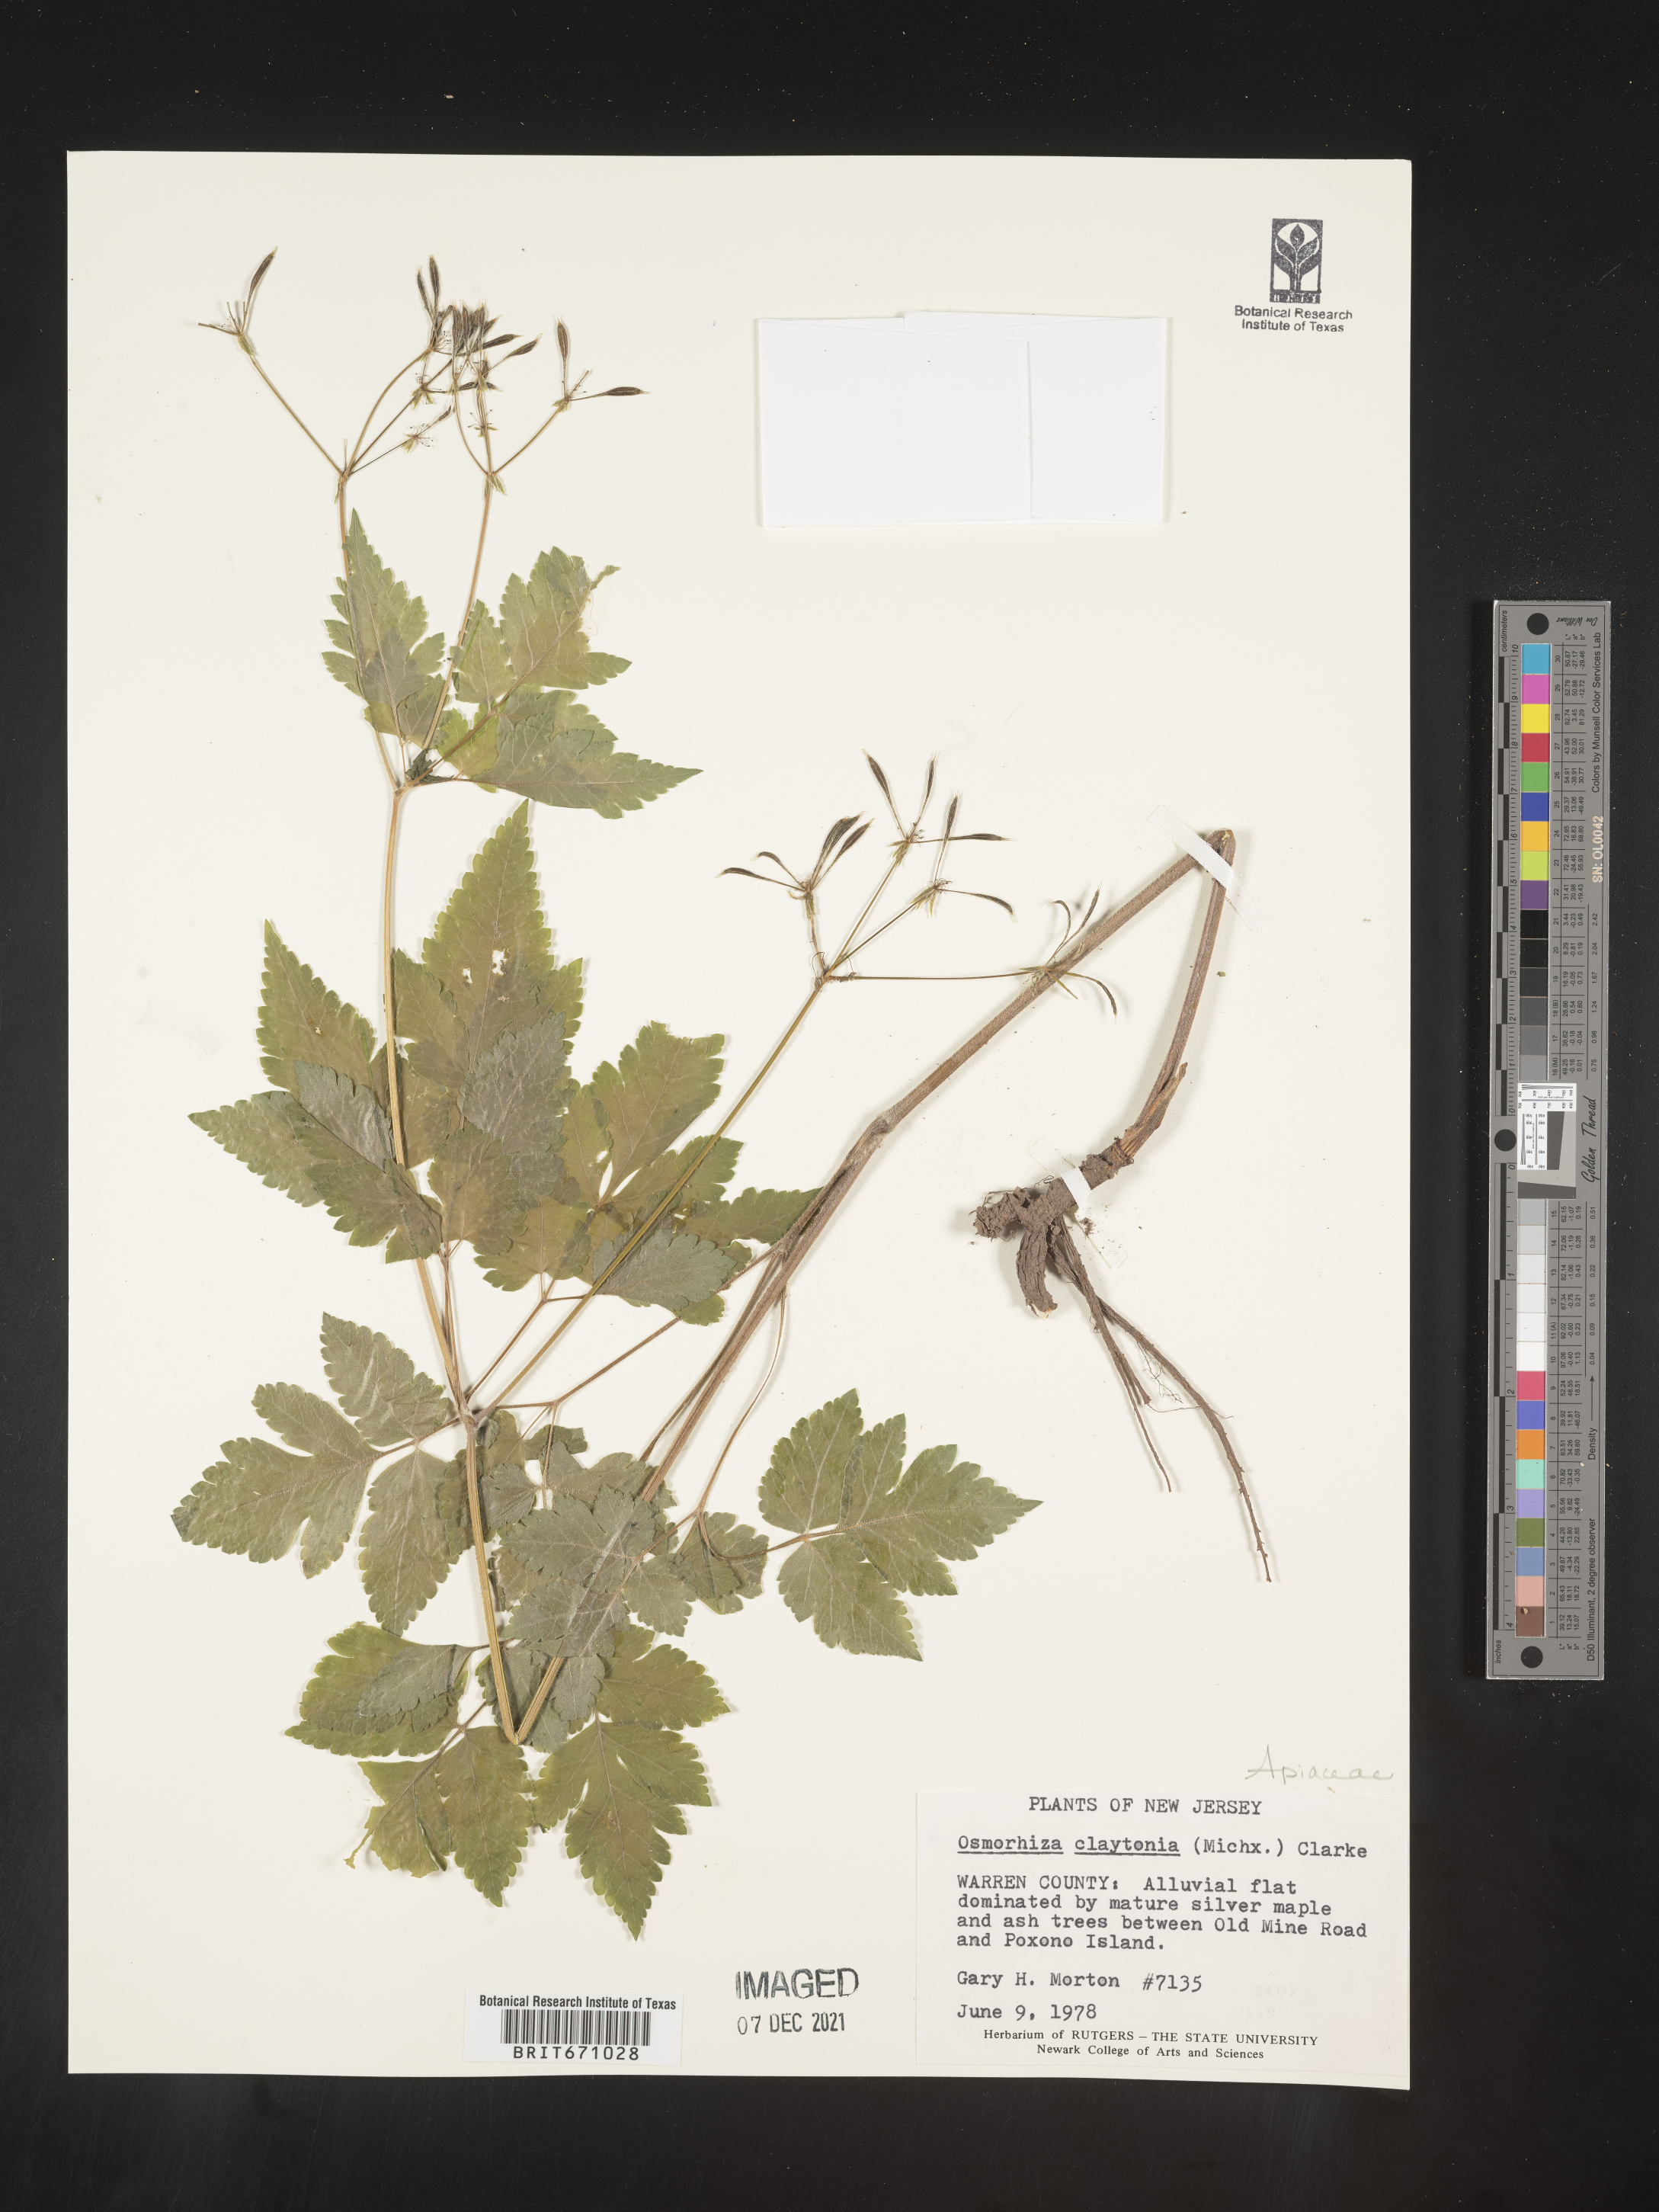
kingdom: Plantae
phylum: Tracheophyta
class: Magnoliopsida
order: Apiales
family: Apiaceae
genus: Osmorhiza
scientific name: Osmorhiza claytonii
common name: Hairy sweet cicely
